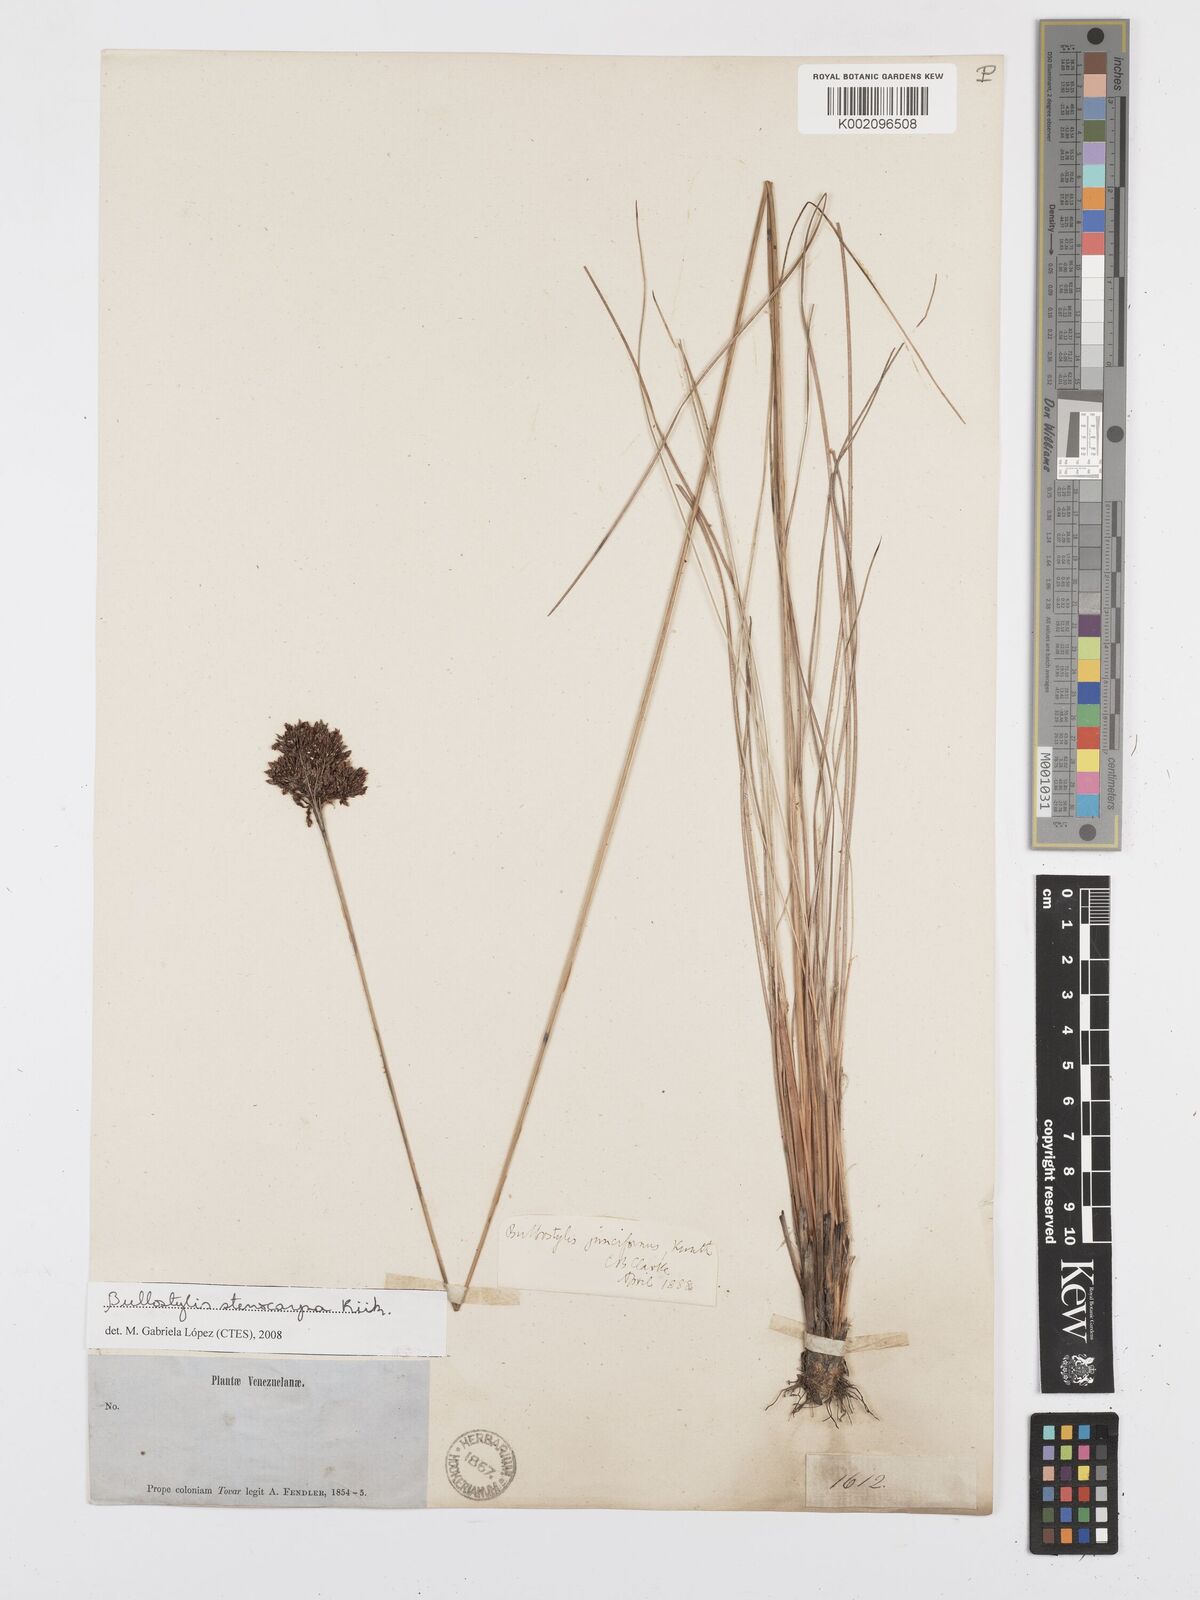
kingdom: Plantae
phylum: Tracheophyta
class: Liliopsida
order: Poales
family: Cyperaceae
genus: Bulbostylis
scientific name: Bulbostylis stenocarpa
